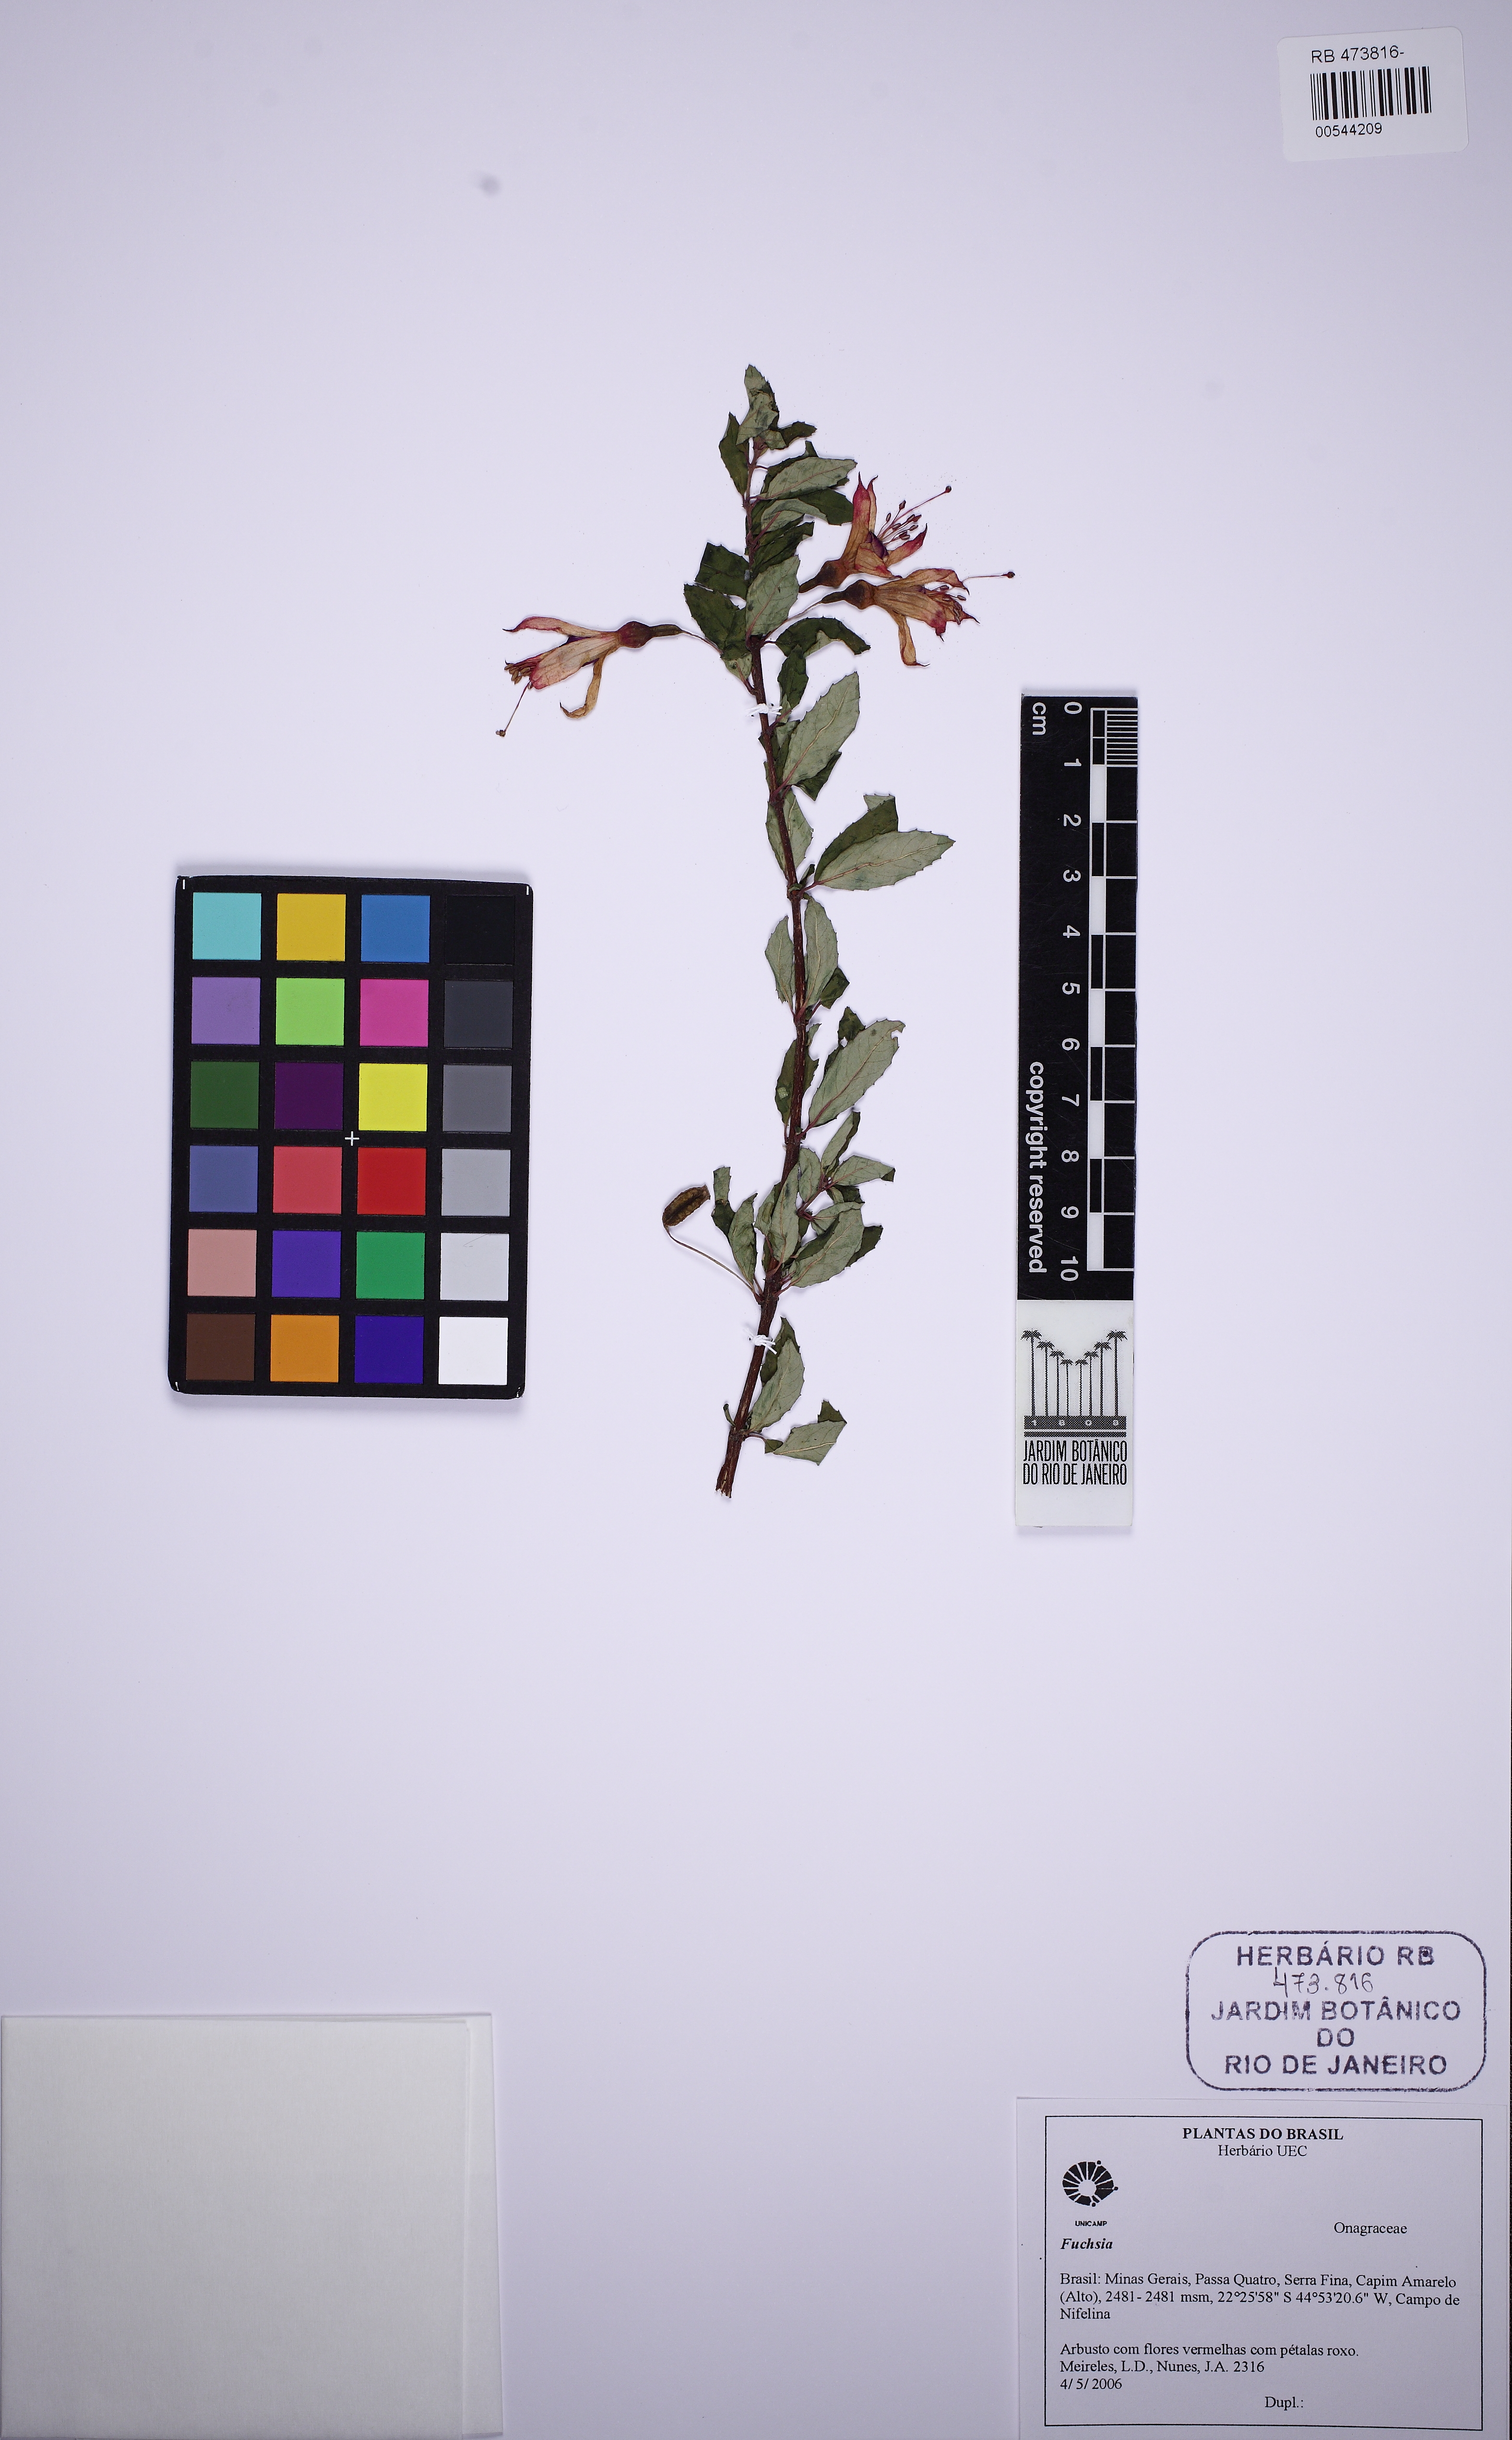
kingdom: Plantae
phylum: Tracheophyta
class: Magnoliopsida
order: Myrtales
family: Onagraceae
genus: Fuchsia
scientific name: Fuchsia
